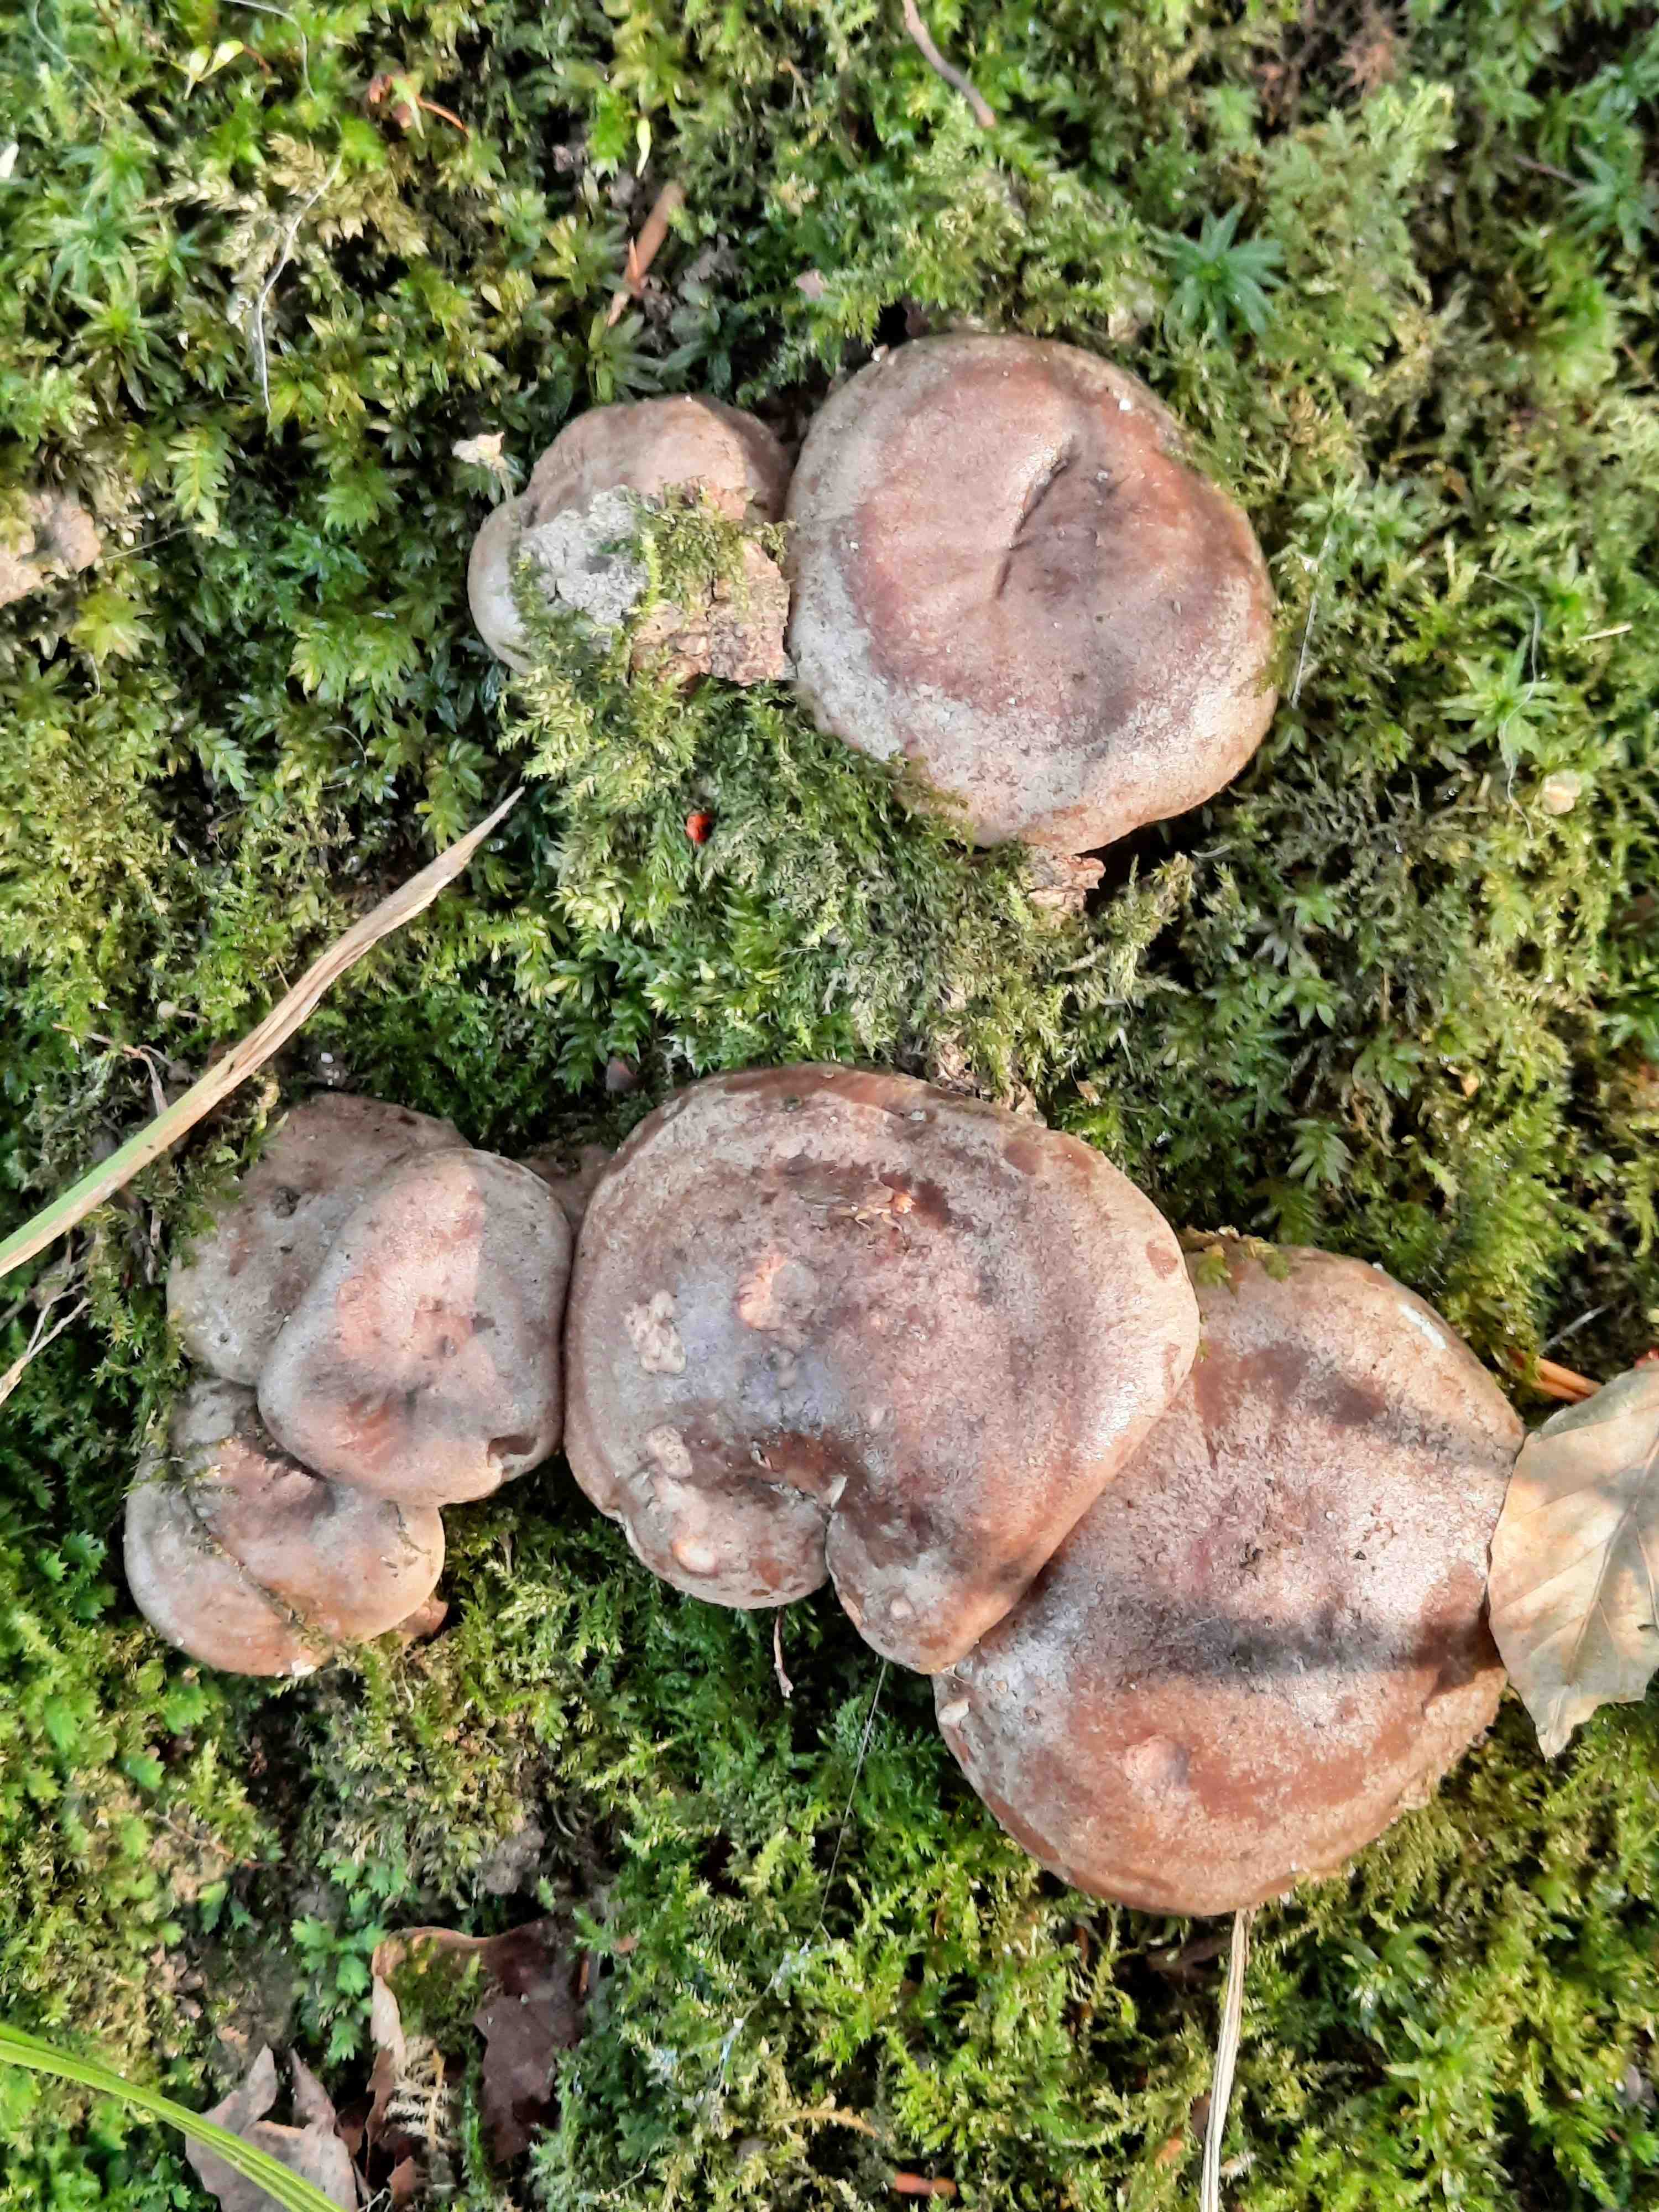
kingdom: Fungi
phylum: Basidiomycota
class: Agaricomycetes
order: Russulales
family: Russulaceae
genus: Lactarius
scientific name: Lactarius blennius
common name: dråbeplettet mælkehat
